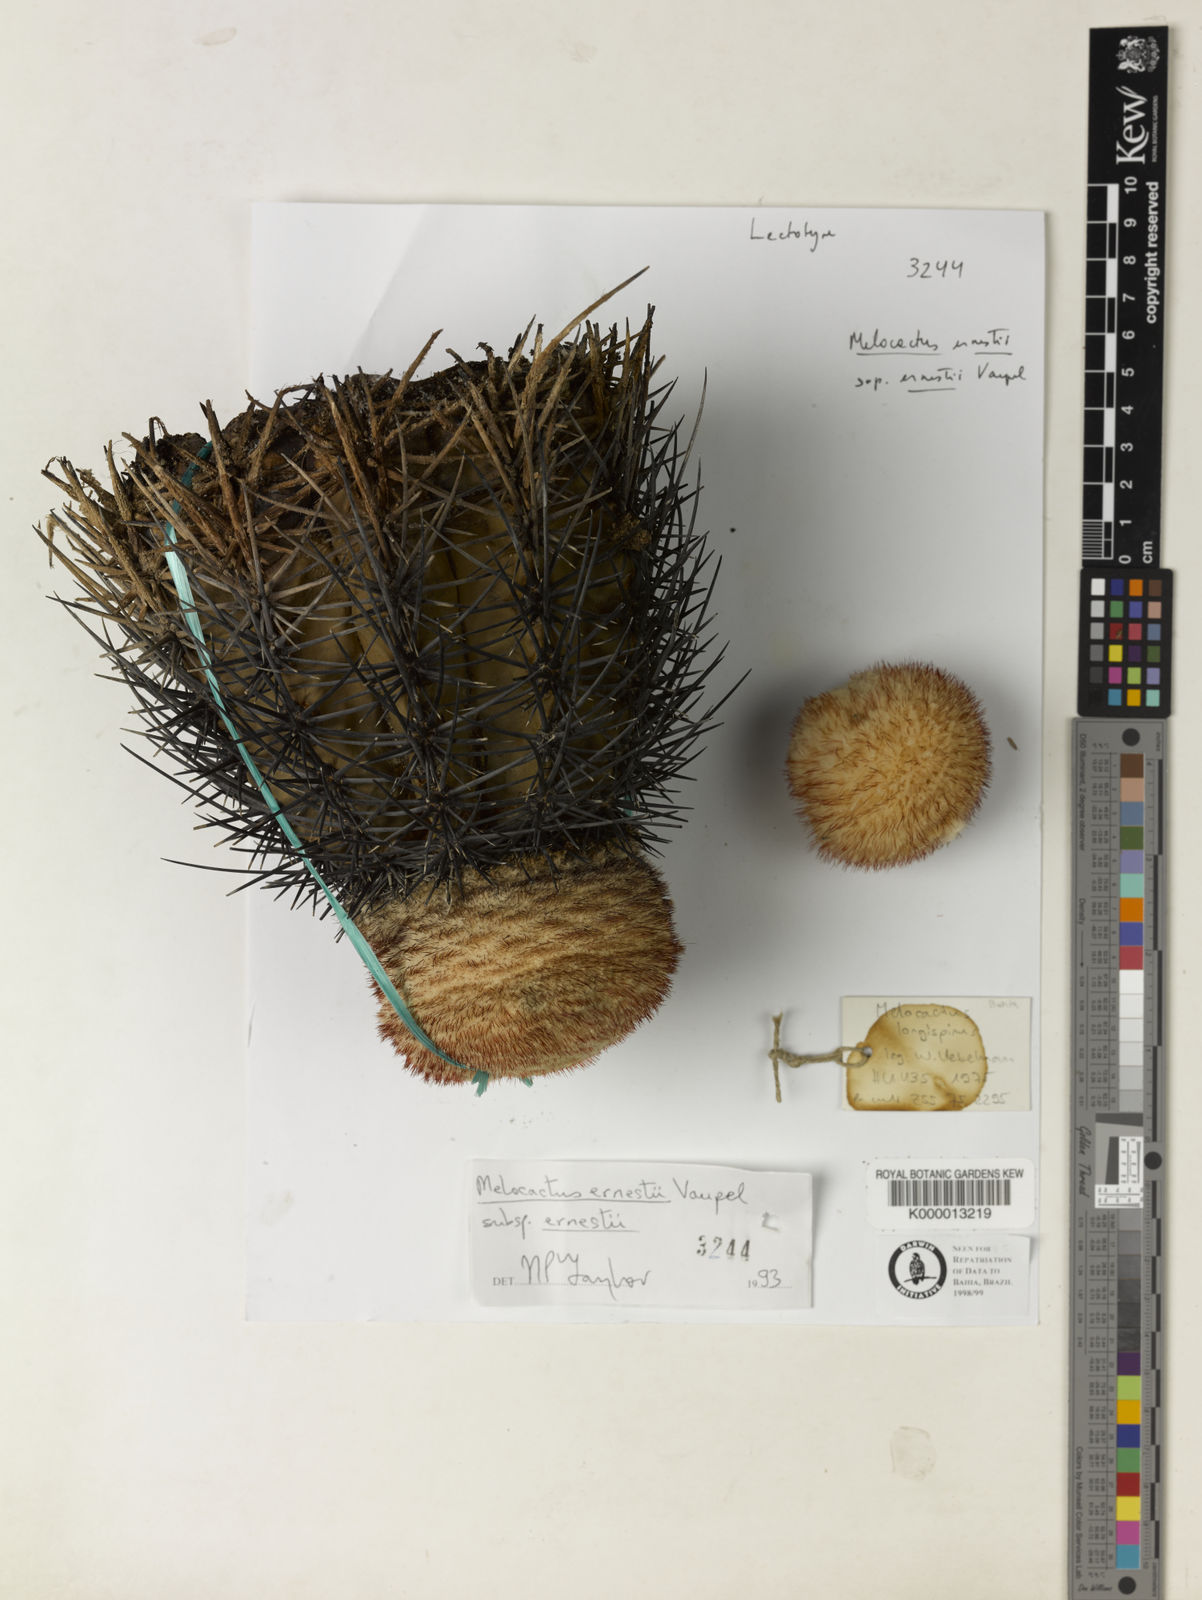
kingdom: Plantae
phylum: Tracheophyta
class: Magnoliopsida
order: Caryophyllales
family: Cactaceae
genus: Melocactus
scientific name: Melocactus ernestii
